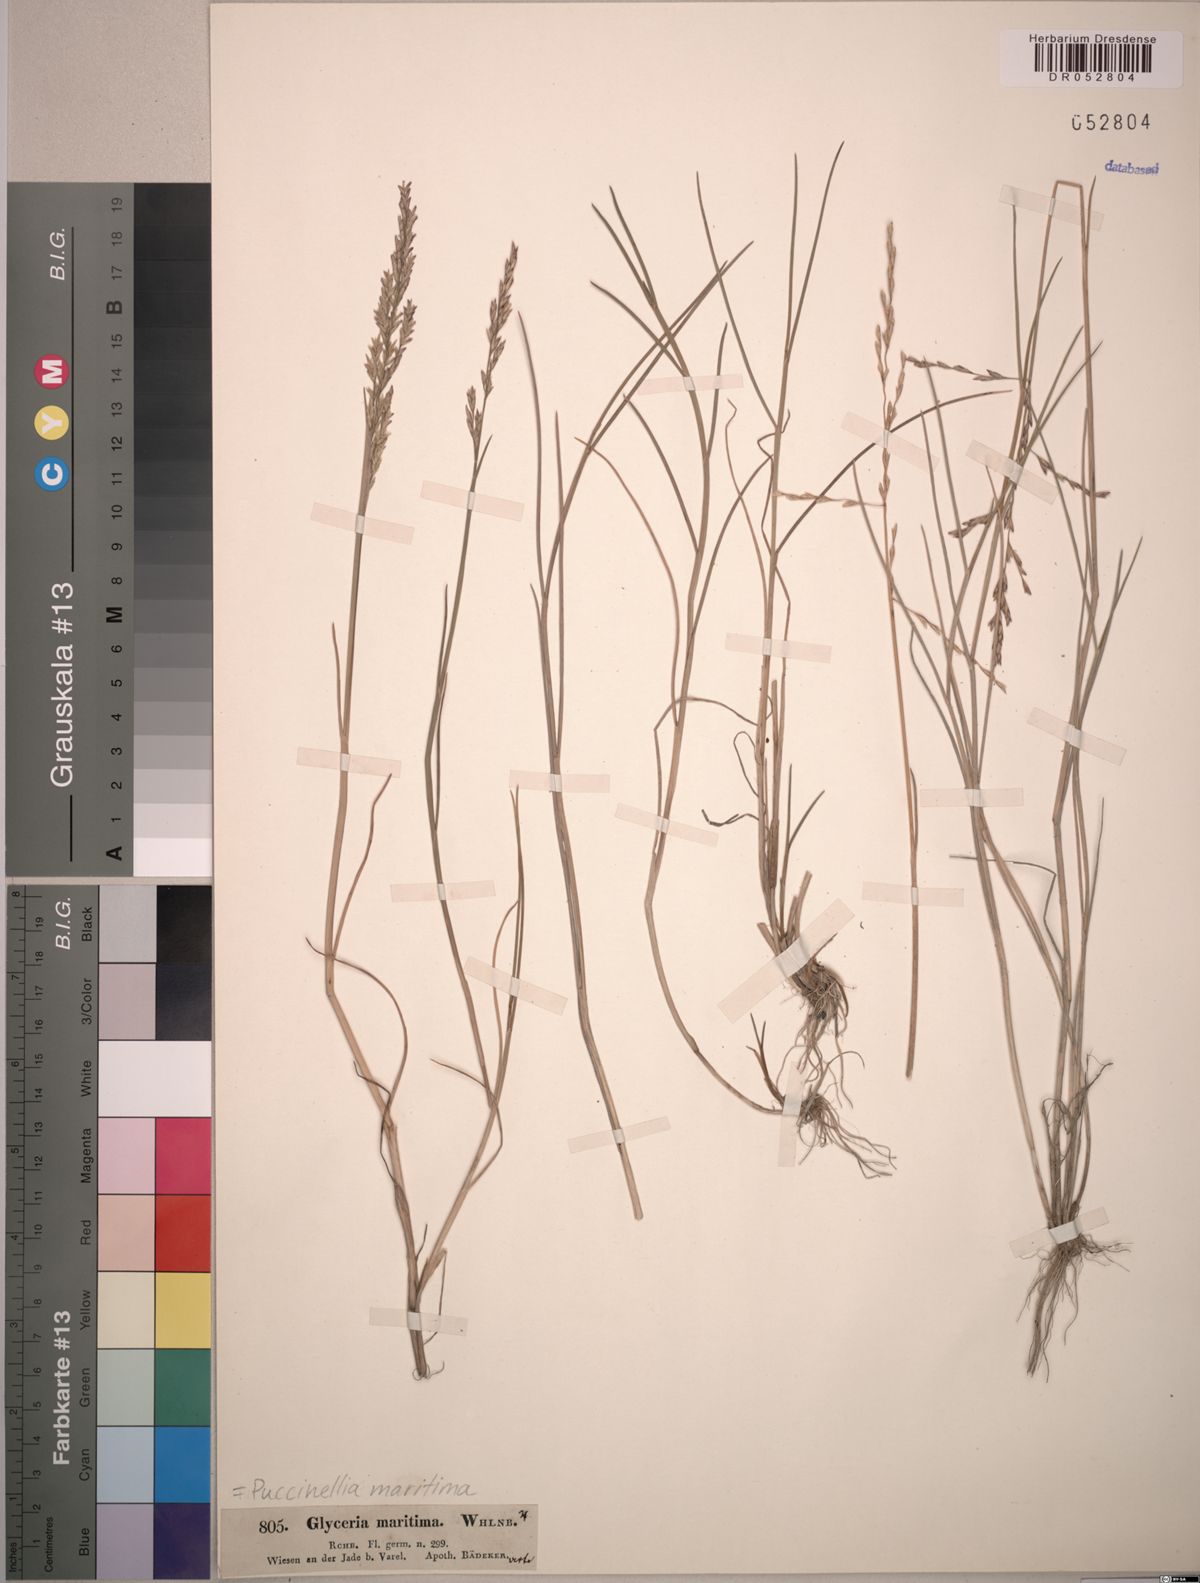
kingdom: Plantae
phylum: Tracheophyta
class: Liliopsida
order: Poales
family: Poaceae
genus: Puccinellia
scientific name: Puccinellia maritima
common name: Common saltmarsh grass
